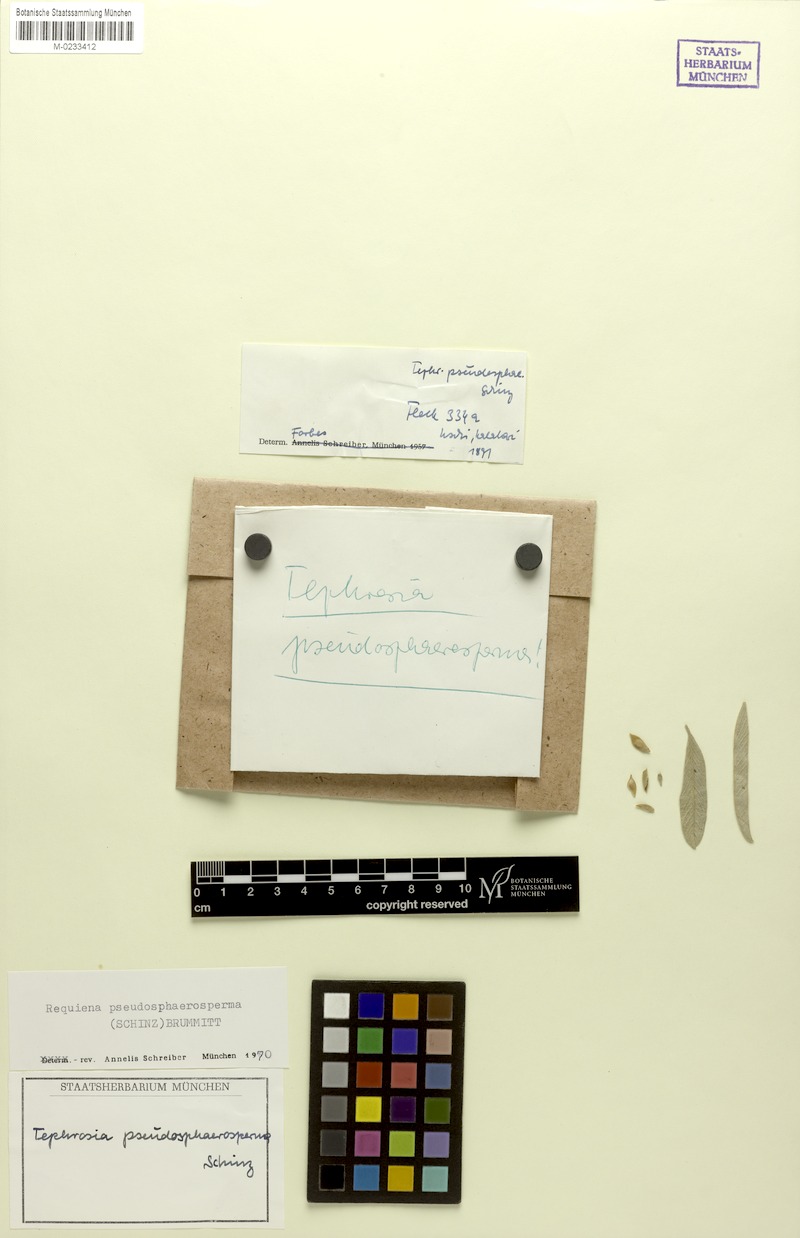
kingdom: Plantae
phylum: Tracheophyta
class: Magnoliopsida
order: Fabales
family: Fabaceae
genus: Requienia
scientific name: Requienia pseudosphaerosperma
